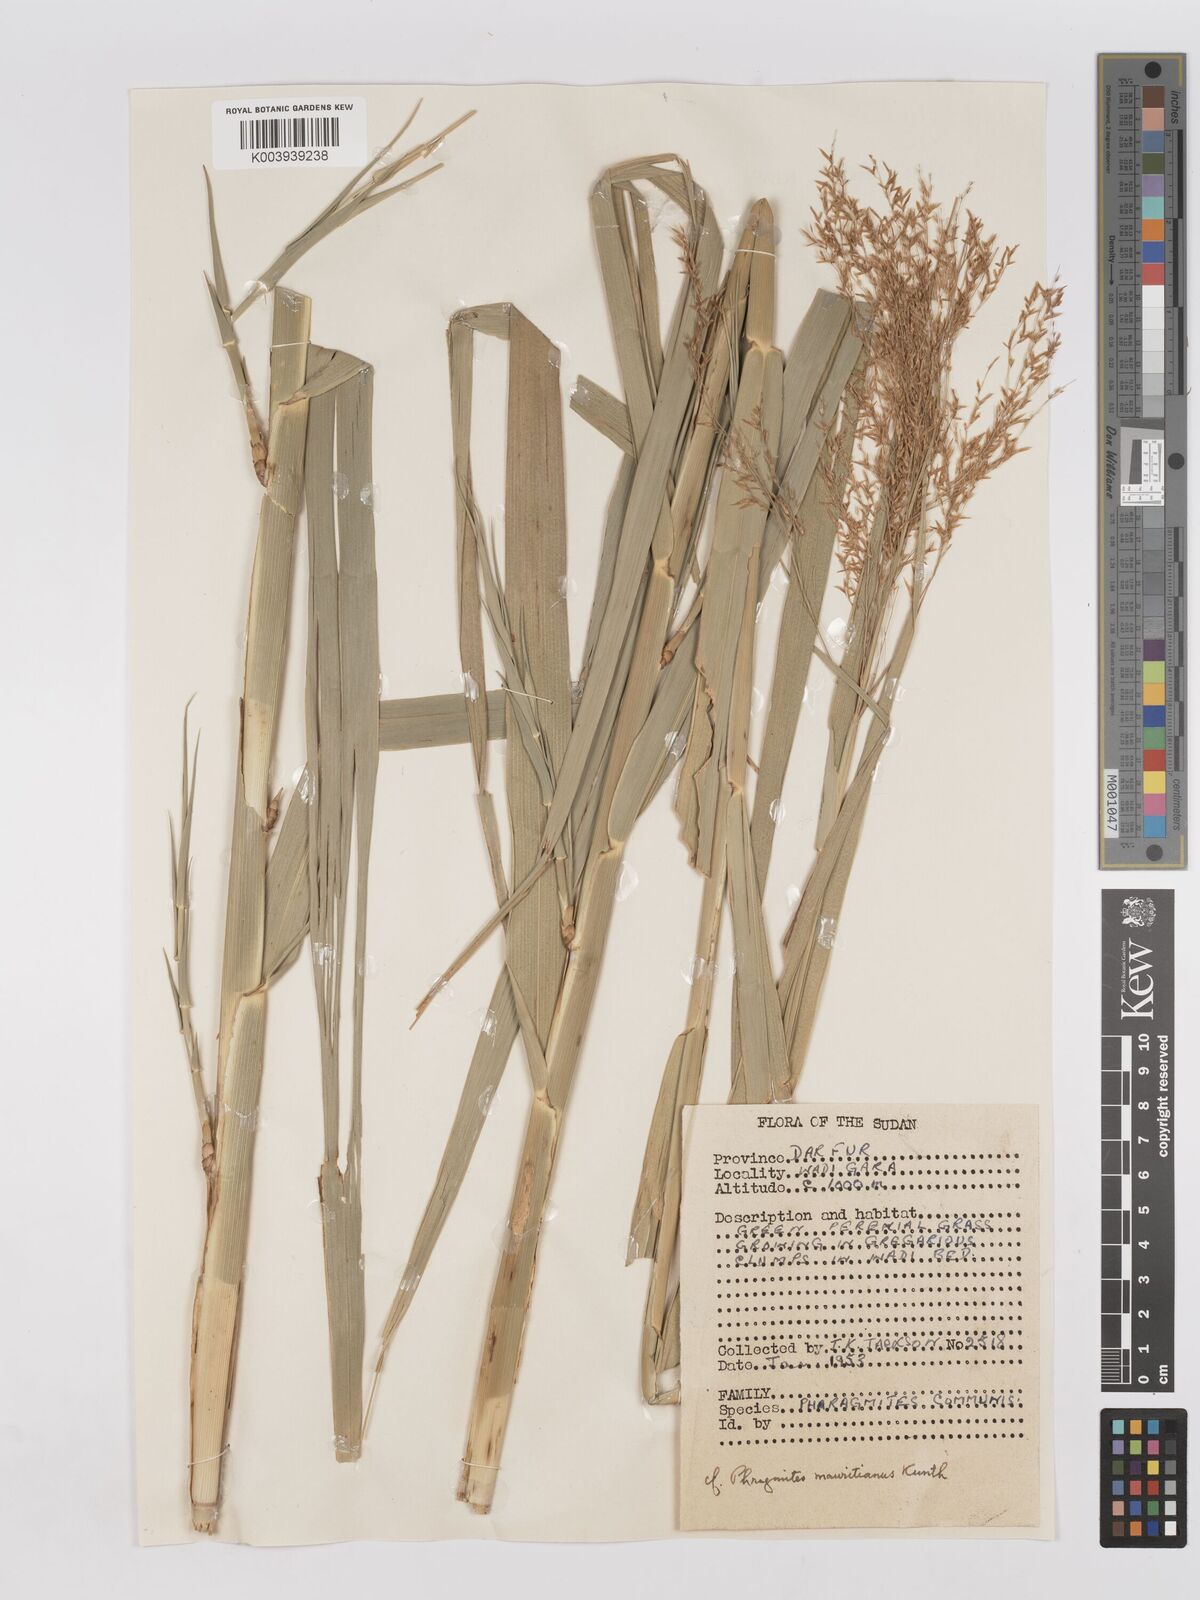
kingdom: Plantae
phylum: Tracheophyta
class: Liliopsida
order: Poales
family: Poaceae
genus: Phragmites
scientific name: Phragmites karka
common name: Tropical reed
